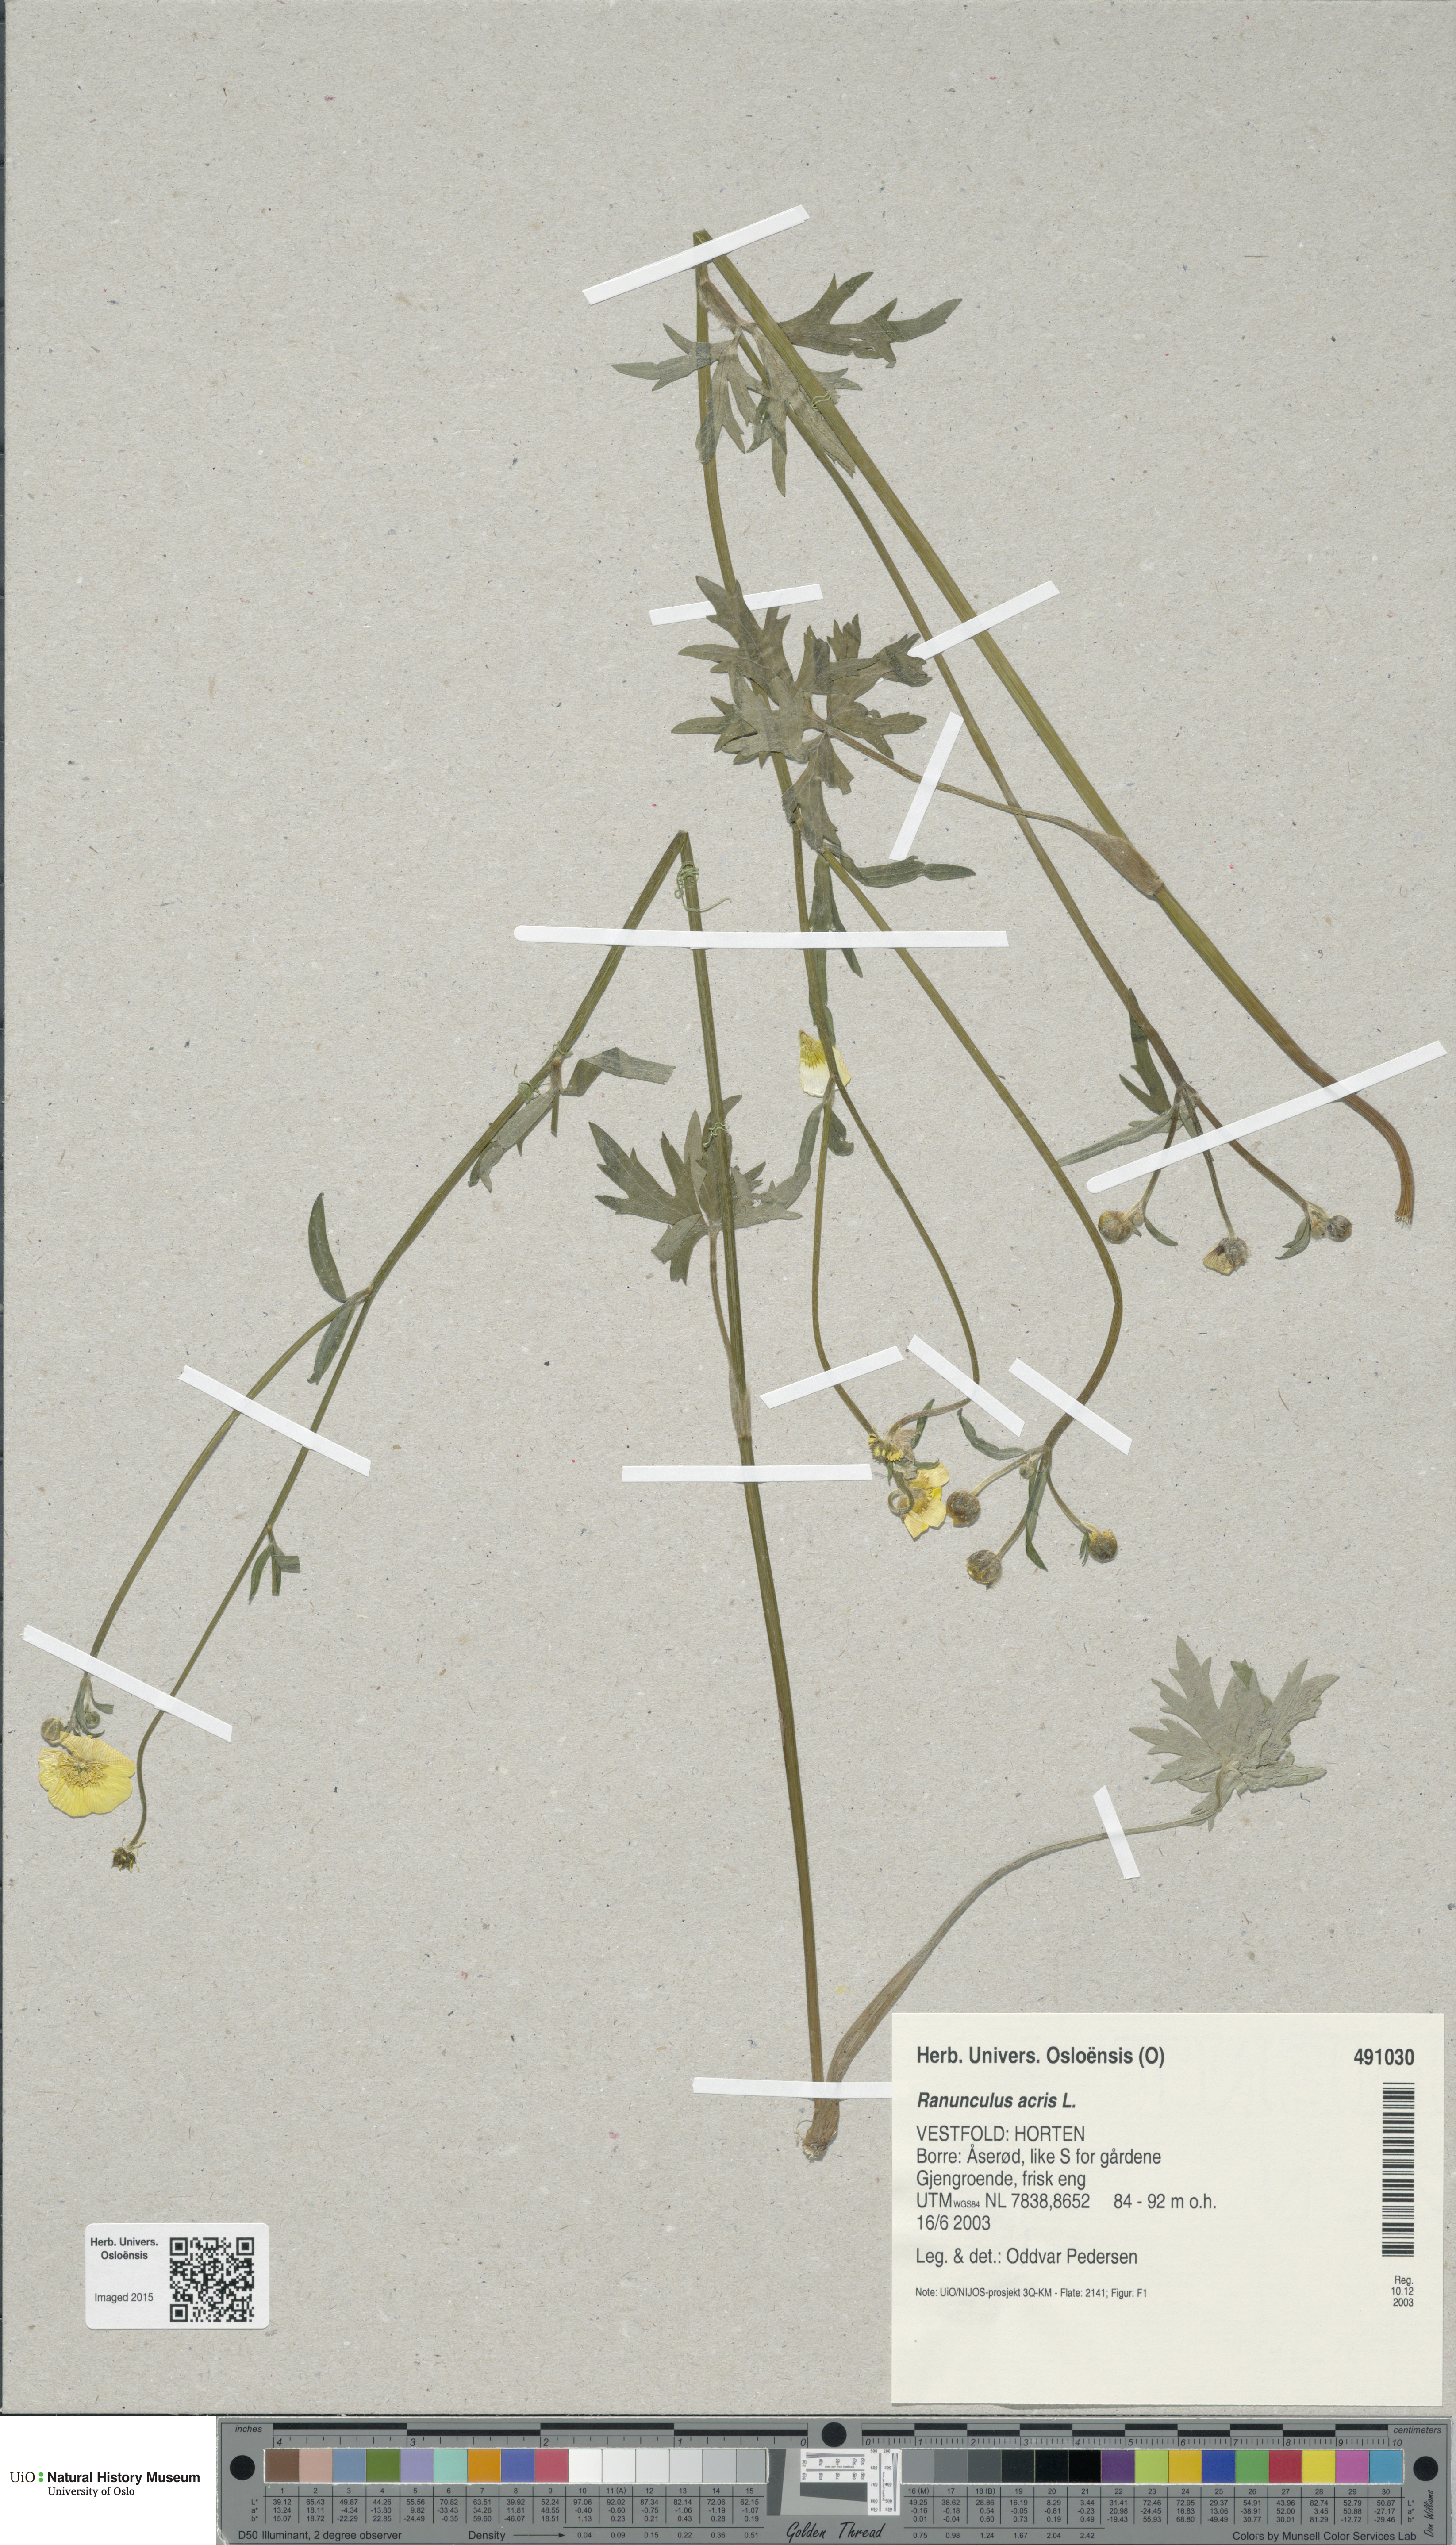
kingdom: Plantae
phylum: Tracheophyta
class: Magnoliopsida
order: Ranunculales
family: Ranunculaceae
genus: Ranunculus
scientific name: Ranunculus acris
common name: Meadow buttercup
